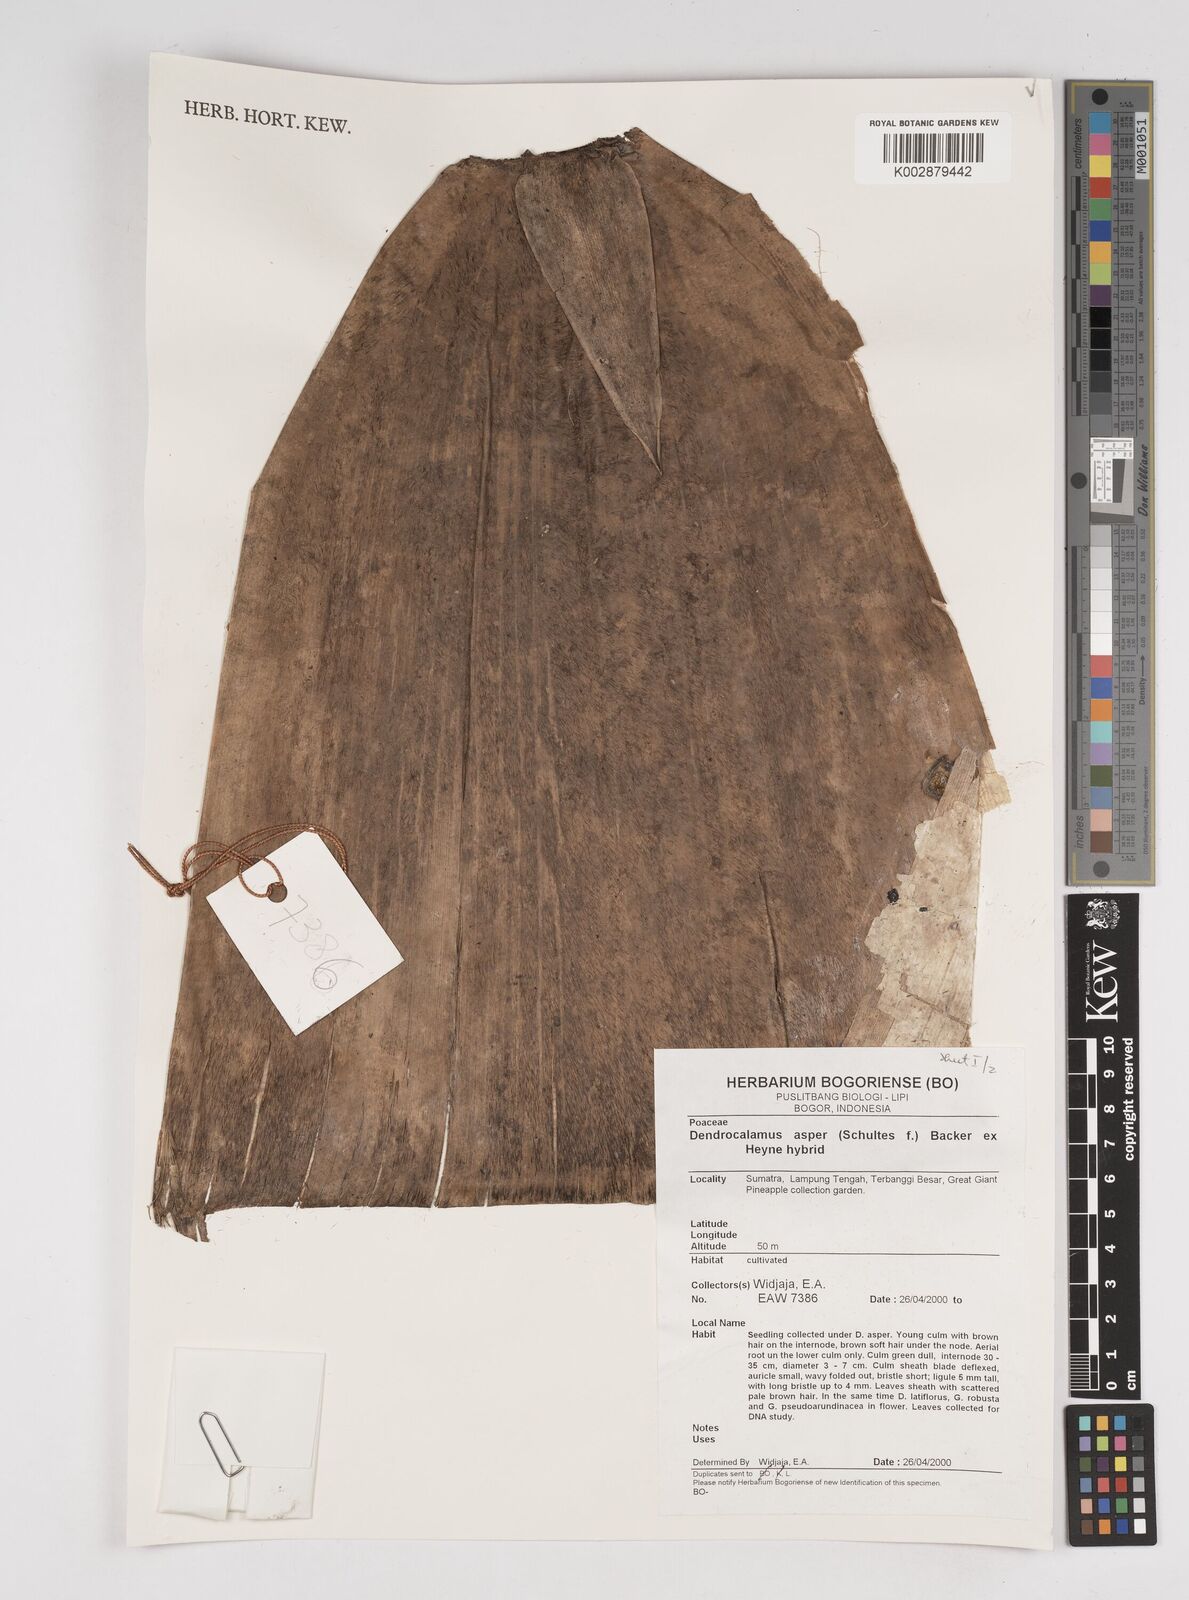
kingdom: Plantae
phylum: Tracheophyta
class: Liliopsida
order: Poales
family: Poaceae
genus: Dendrocalamus
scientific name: Dendrocalamus asper
